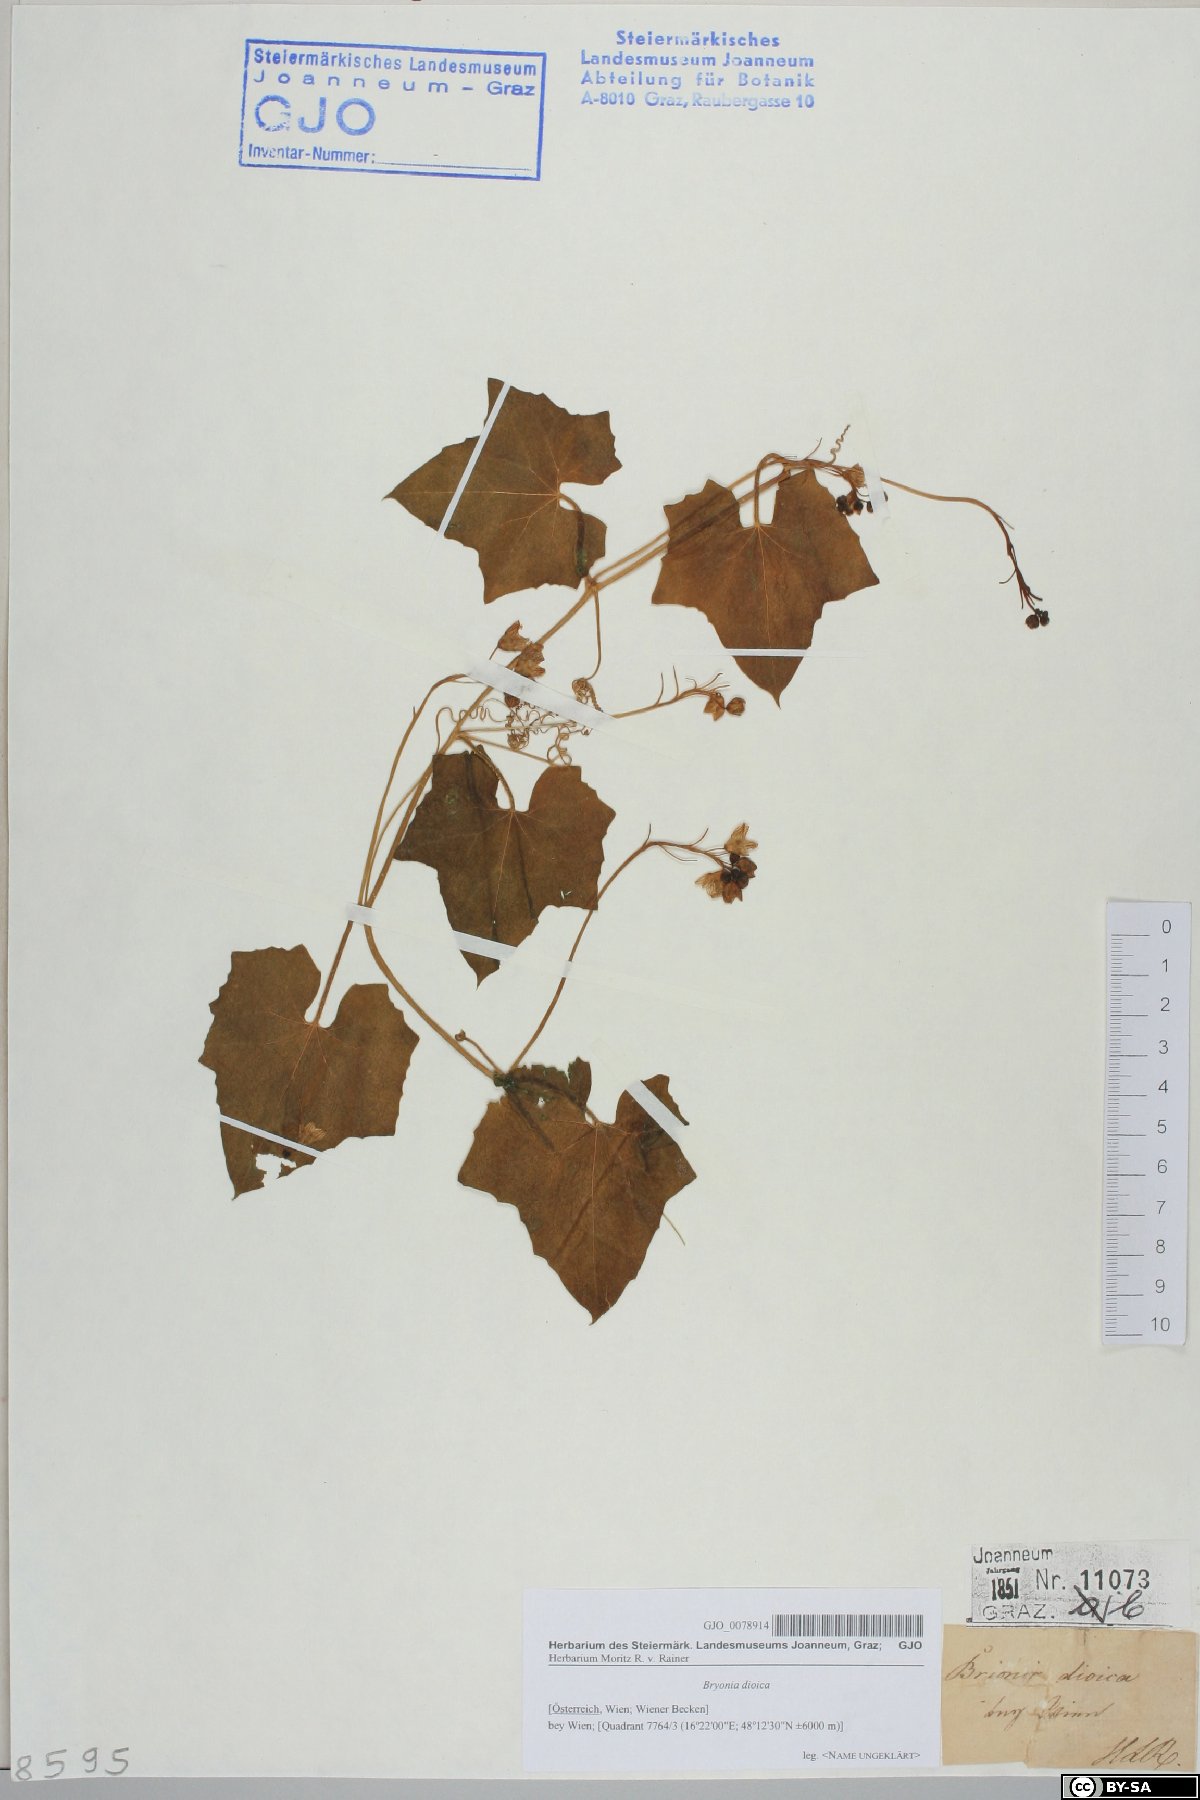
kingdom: Plantae
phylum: Tracheophyta
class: Magnoliopsida
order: Cucurbitales
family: Cucurbitaceae
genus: Bryonia
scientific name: Bryonia dioica
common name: White bryony
